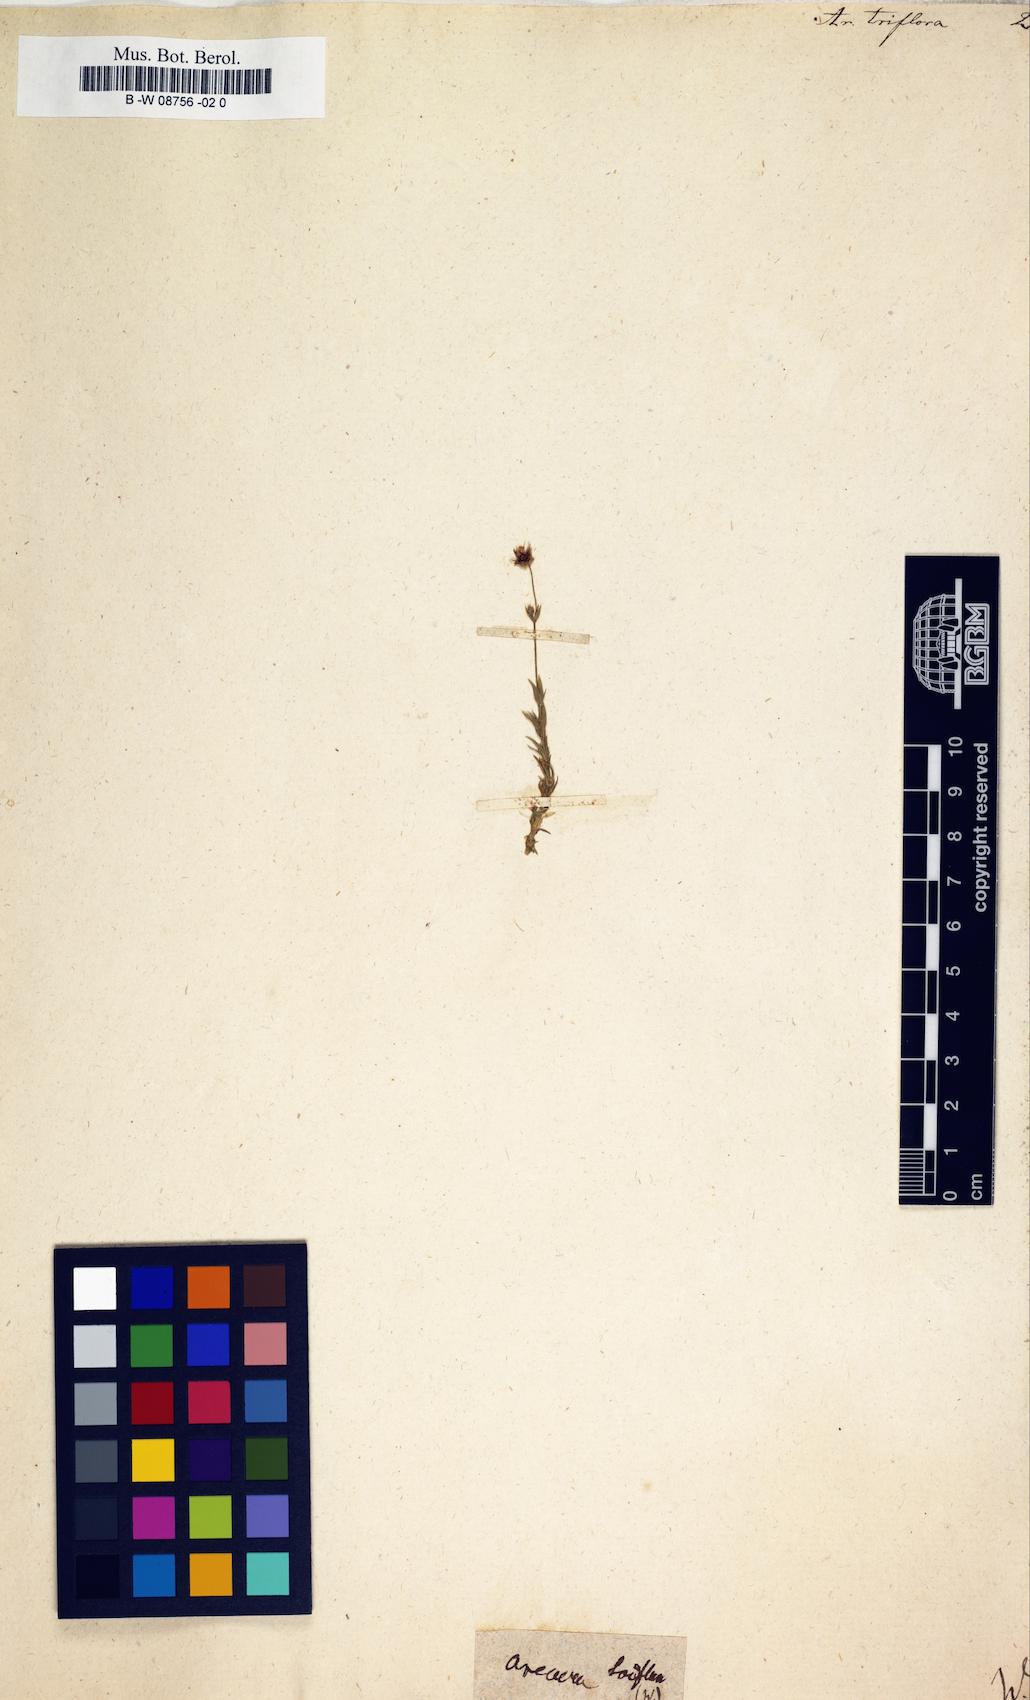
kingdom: Plantae
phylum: Tracheophyta
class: Magnoliopsida
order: Caryophyllales
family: Caryophyllaceae
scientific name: Caryophyllaceae
